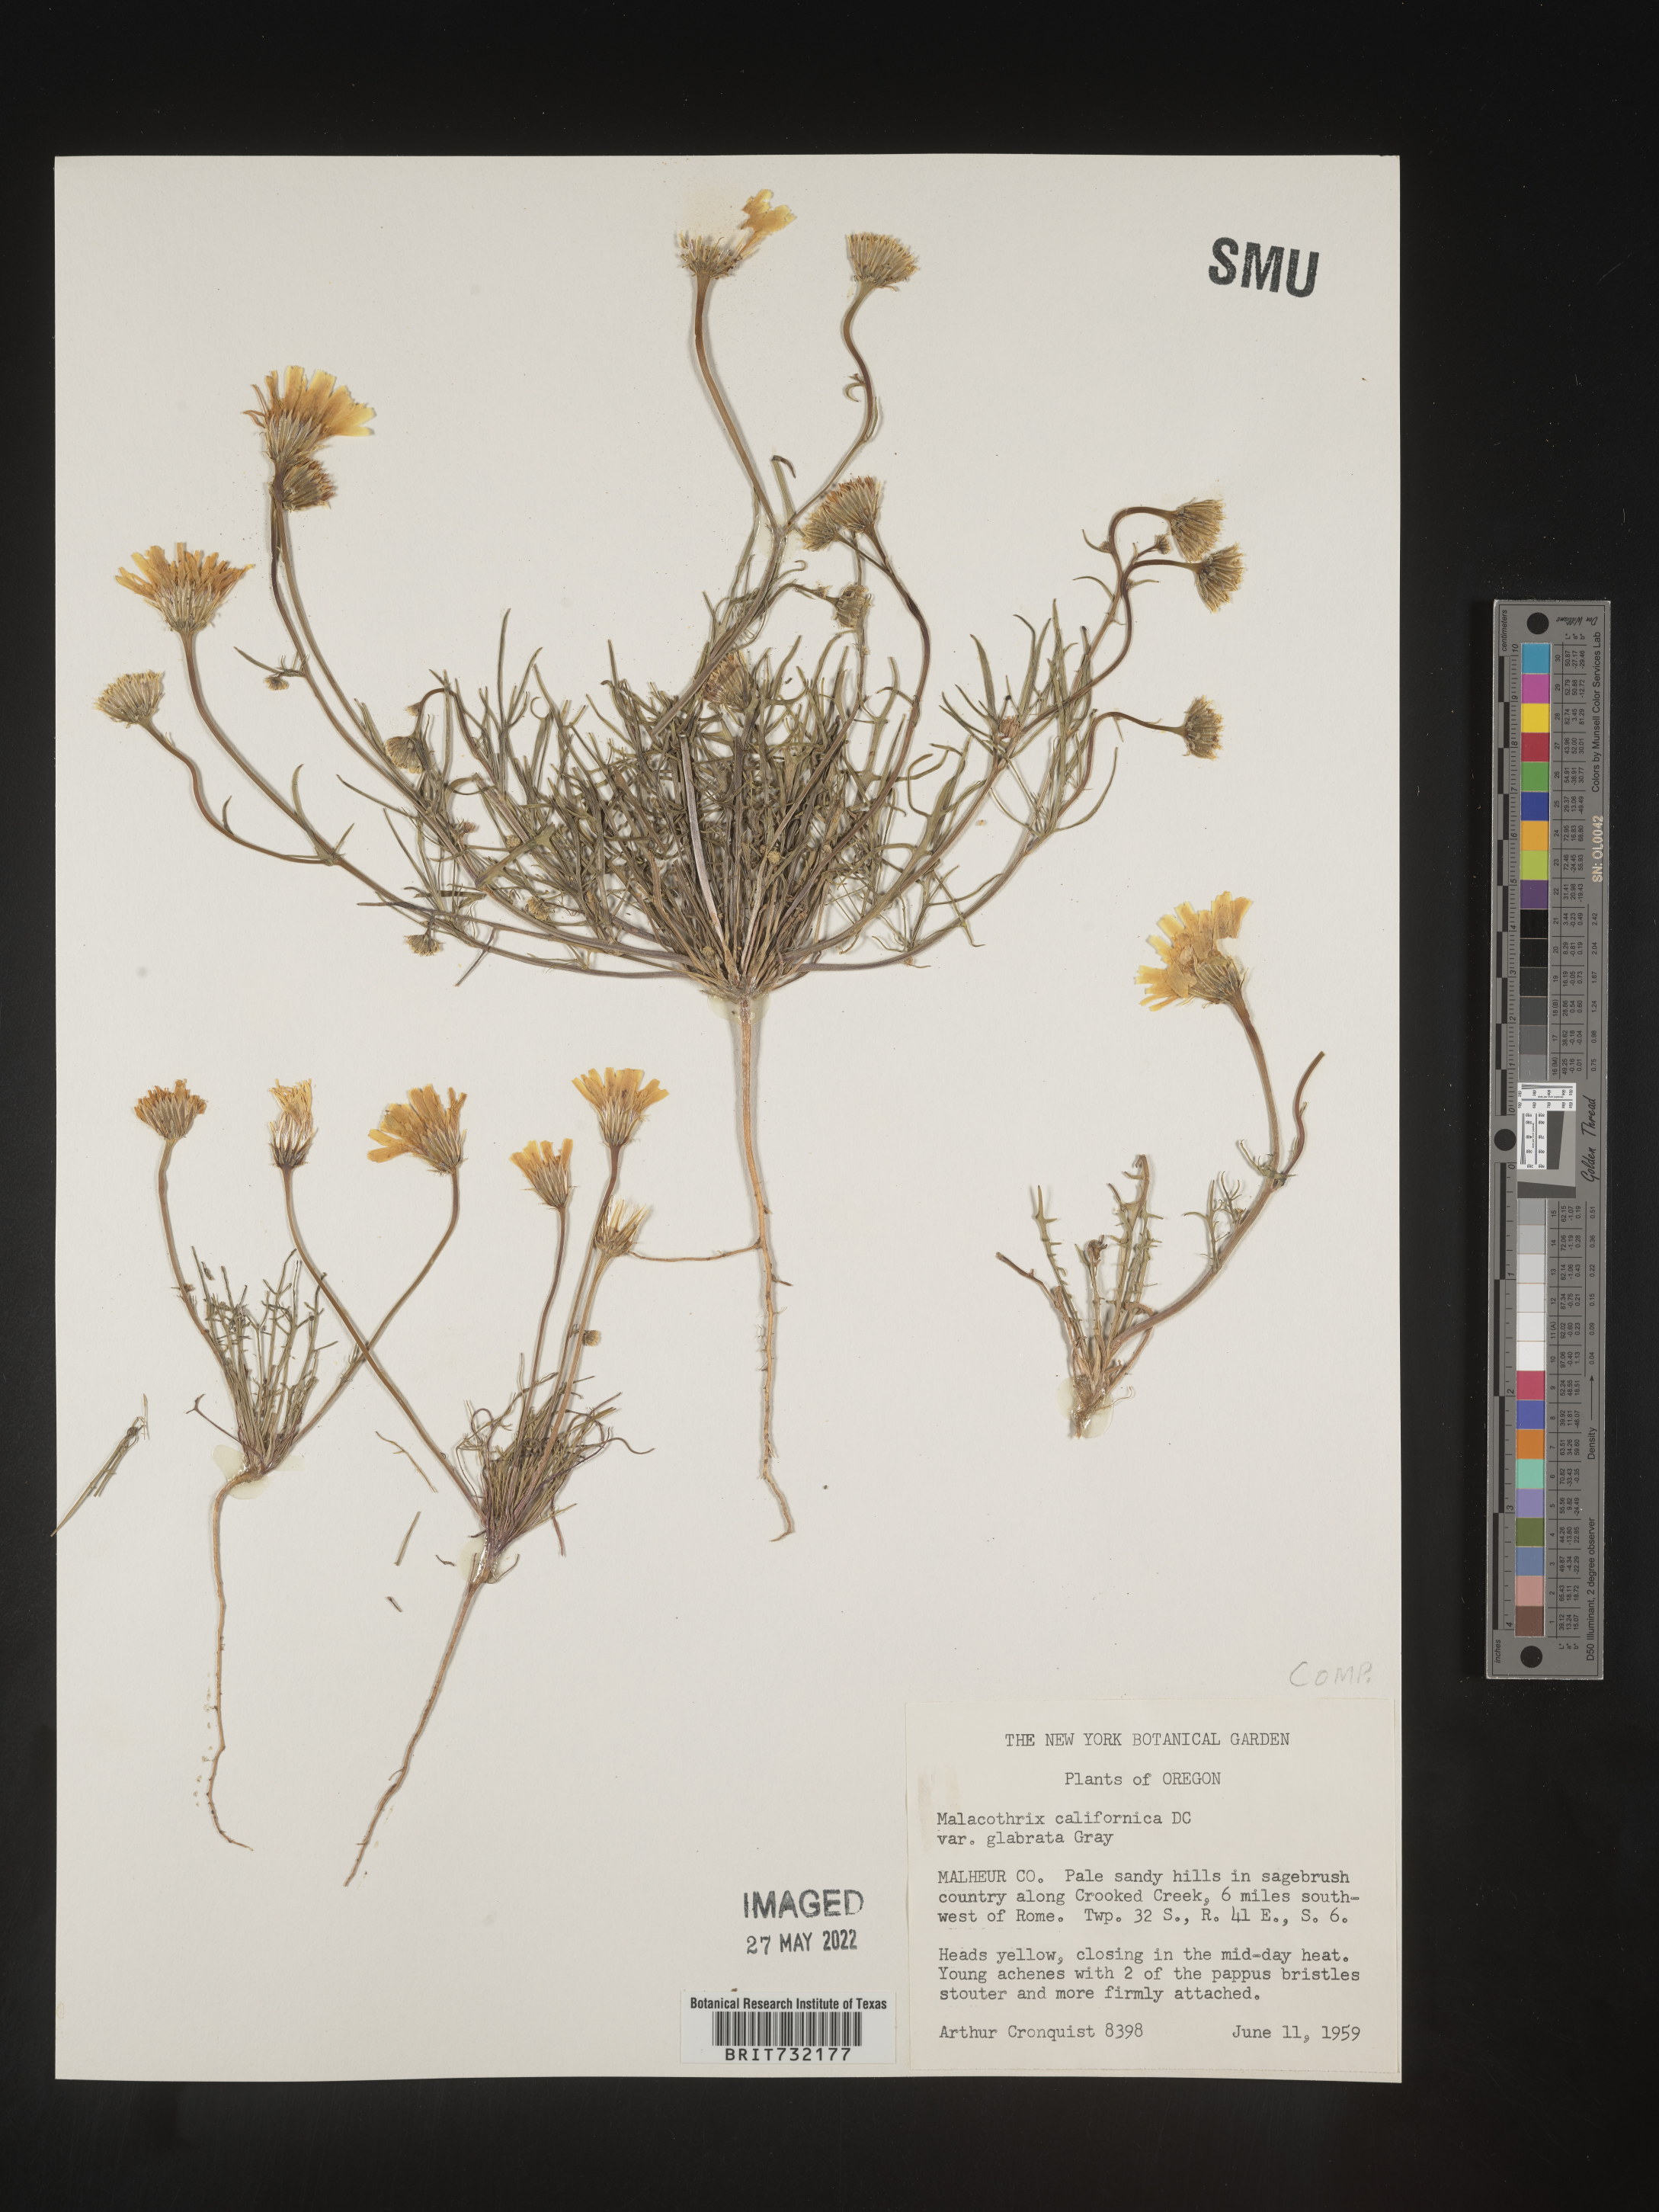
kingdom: Plantae
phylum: Tracheophyta
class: Magnoliopsida
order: Asterales
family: Asteraceae
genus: Malacothrix
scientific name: Malacothrix
